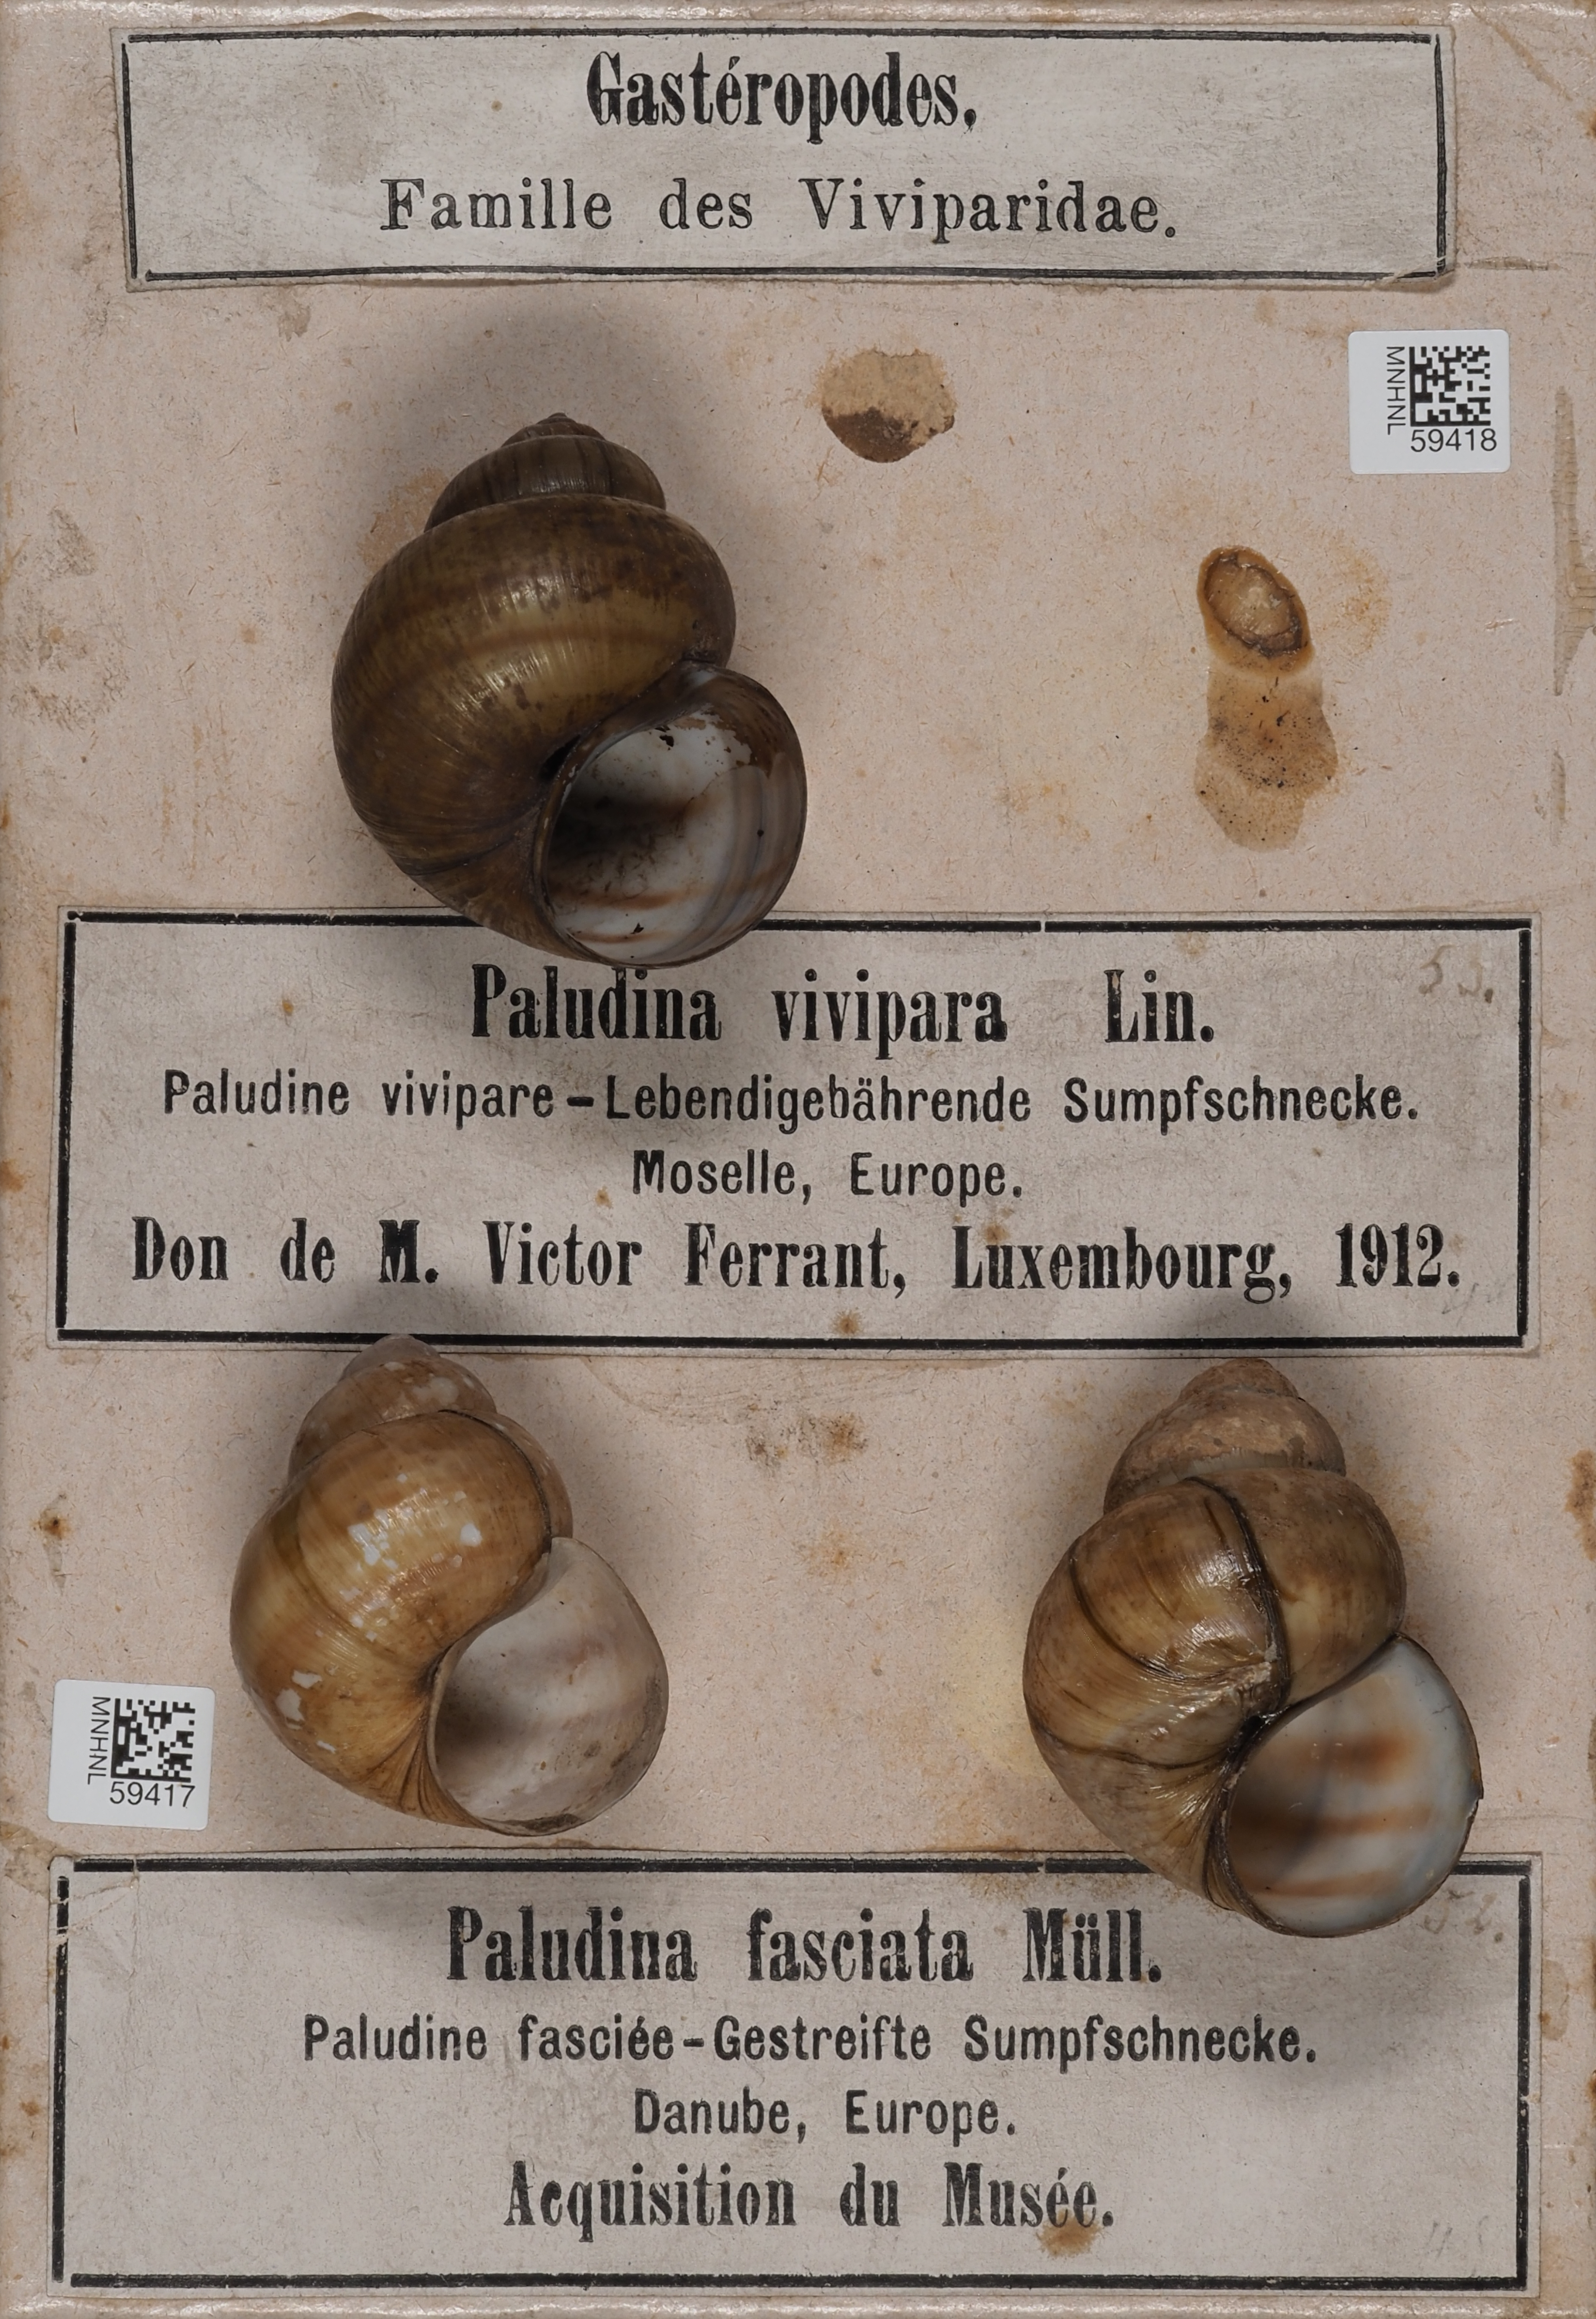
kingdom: Animalia
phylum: Mollusca
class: Gastropoda
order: Architaenioglossa
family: Viviparidae
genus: Viviparus
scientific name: Viviparus viviparus
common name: River snail
